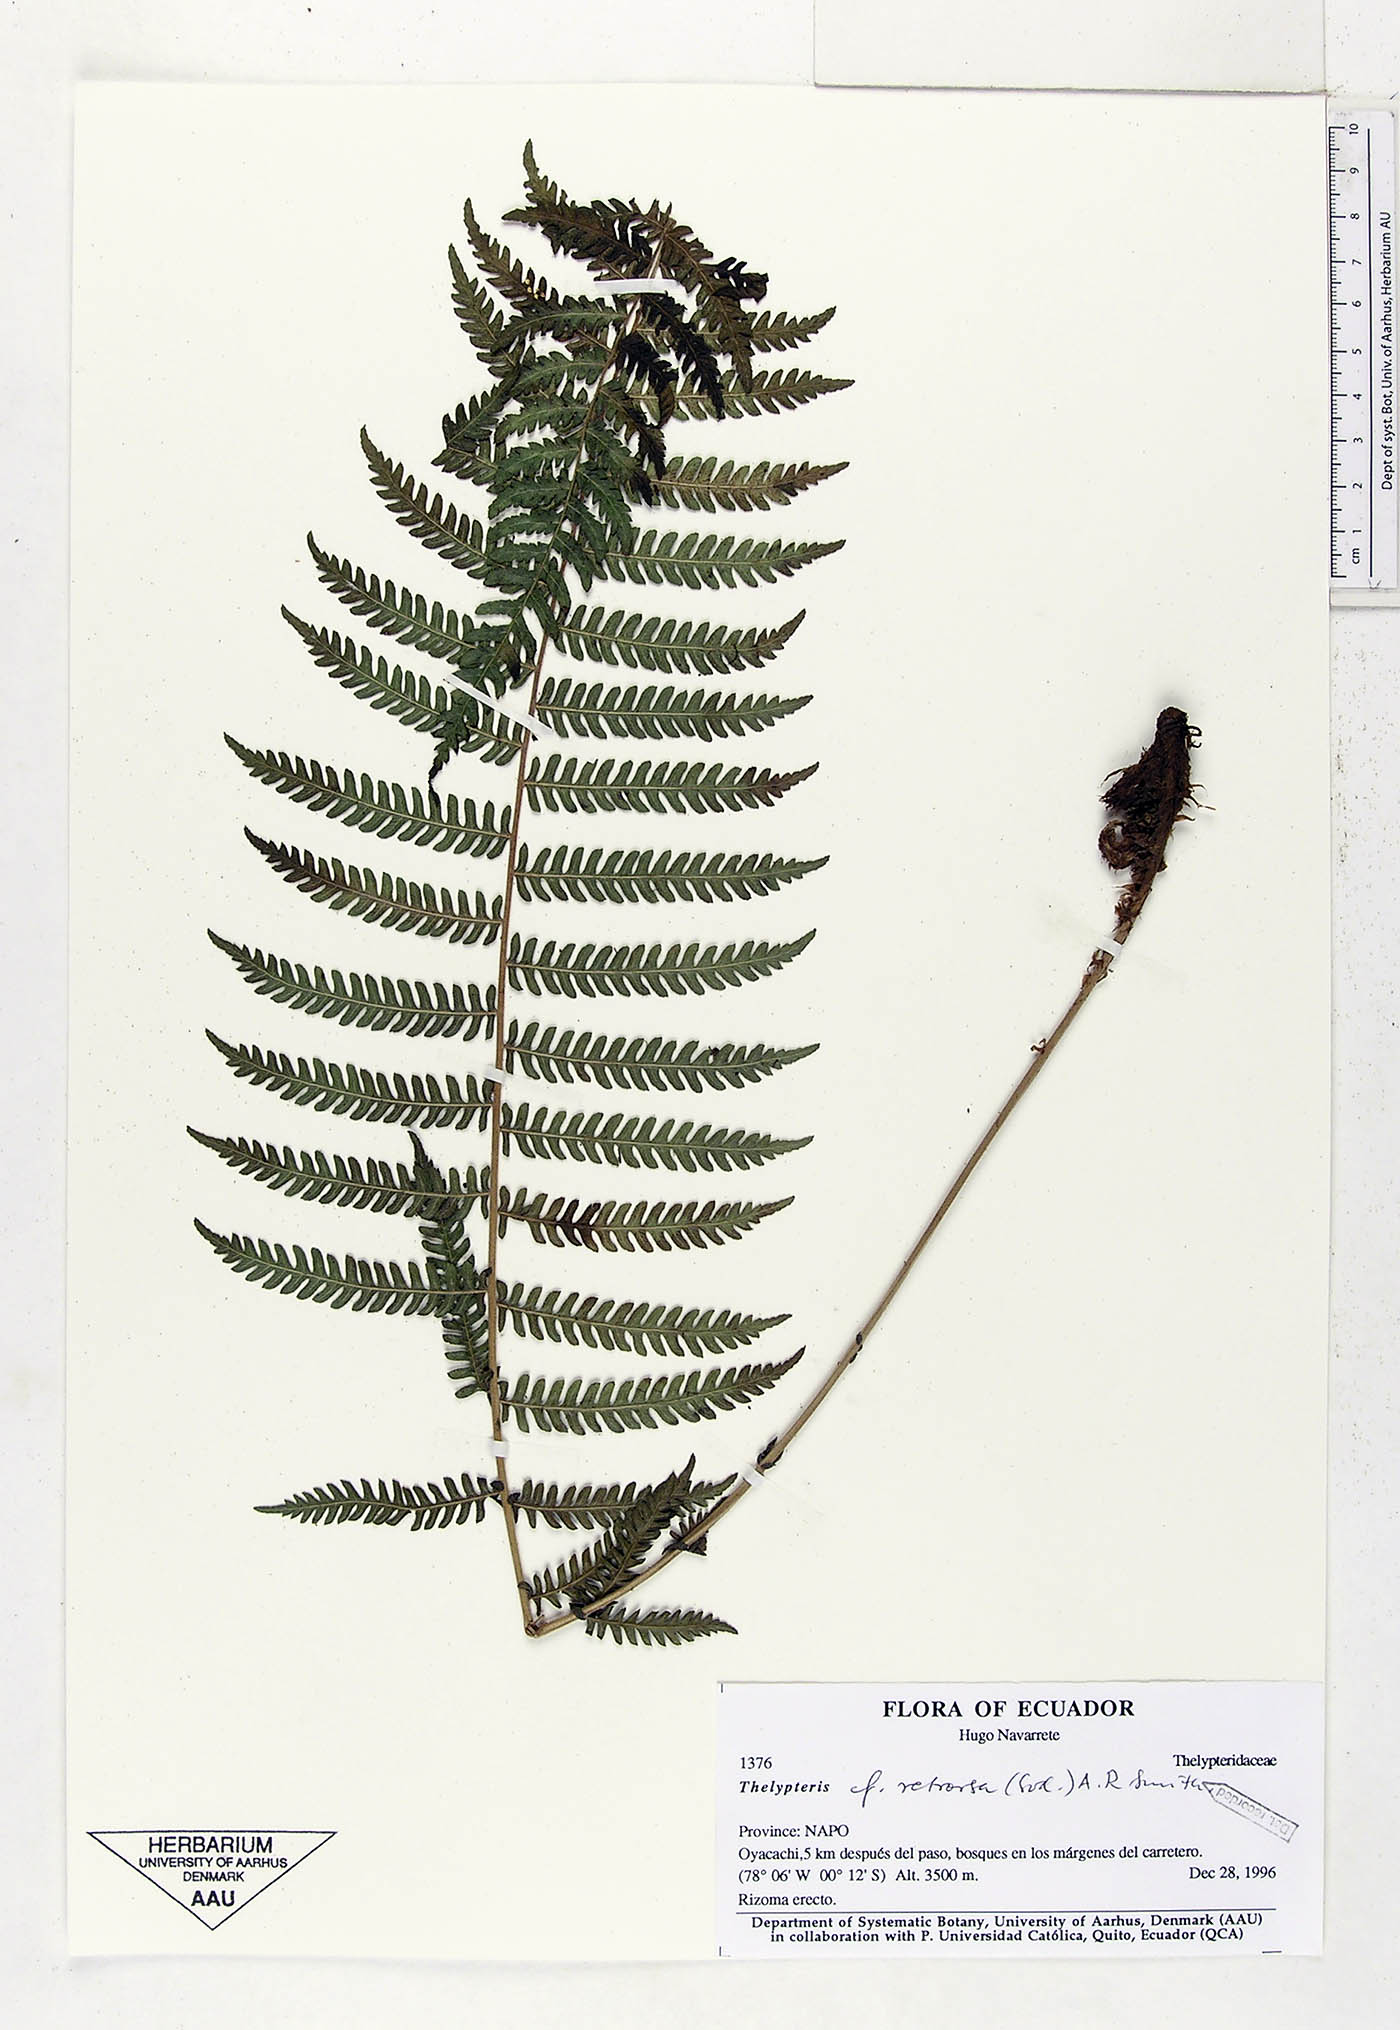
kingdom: Plantae
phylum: Tracheophyta
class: Polypodiopsida
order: Polypodiales
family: Thelypteridaceae
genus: Amauropelta
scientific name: Amauropelta pilosohispida
